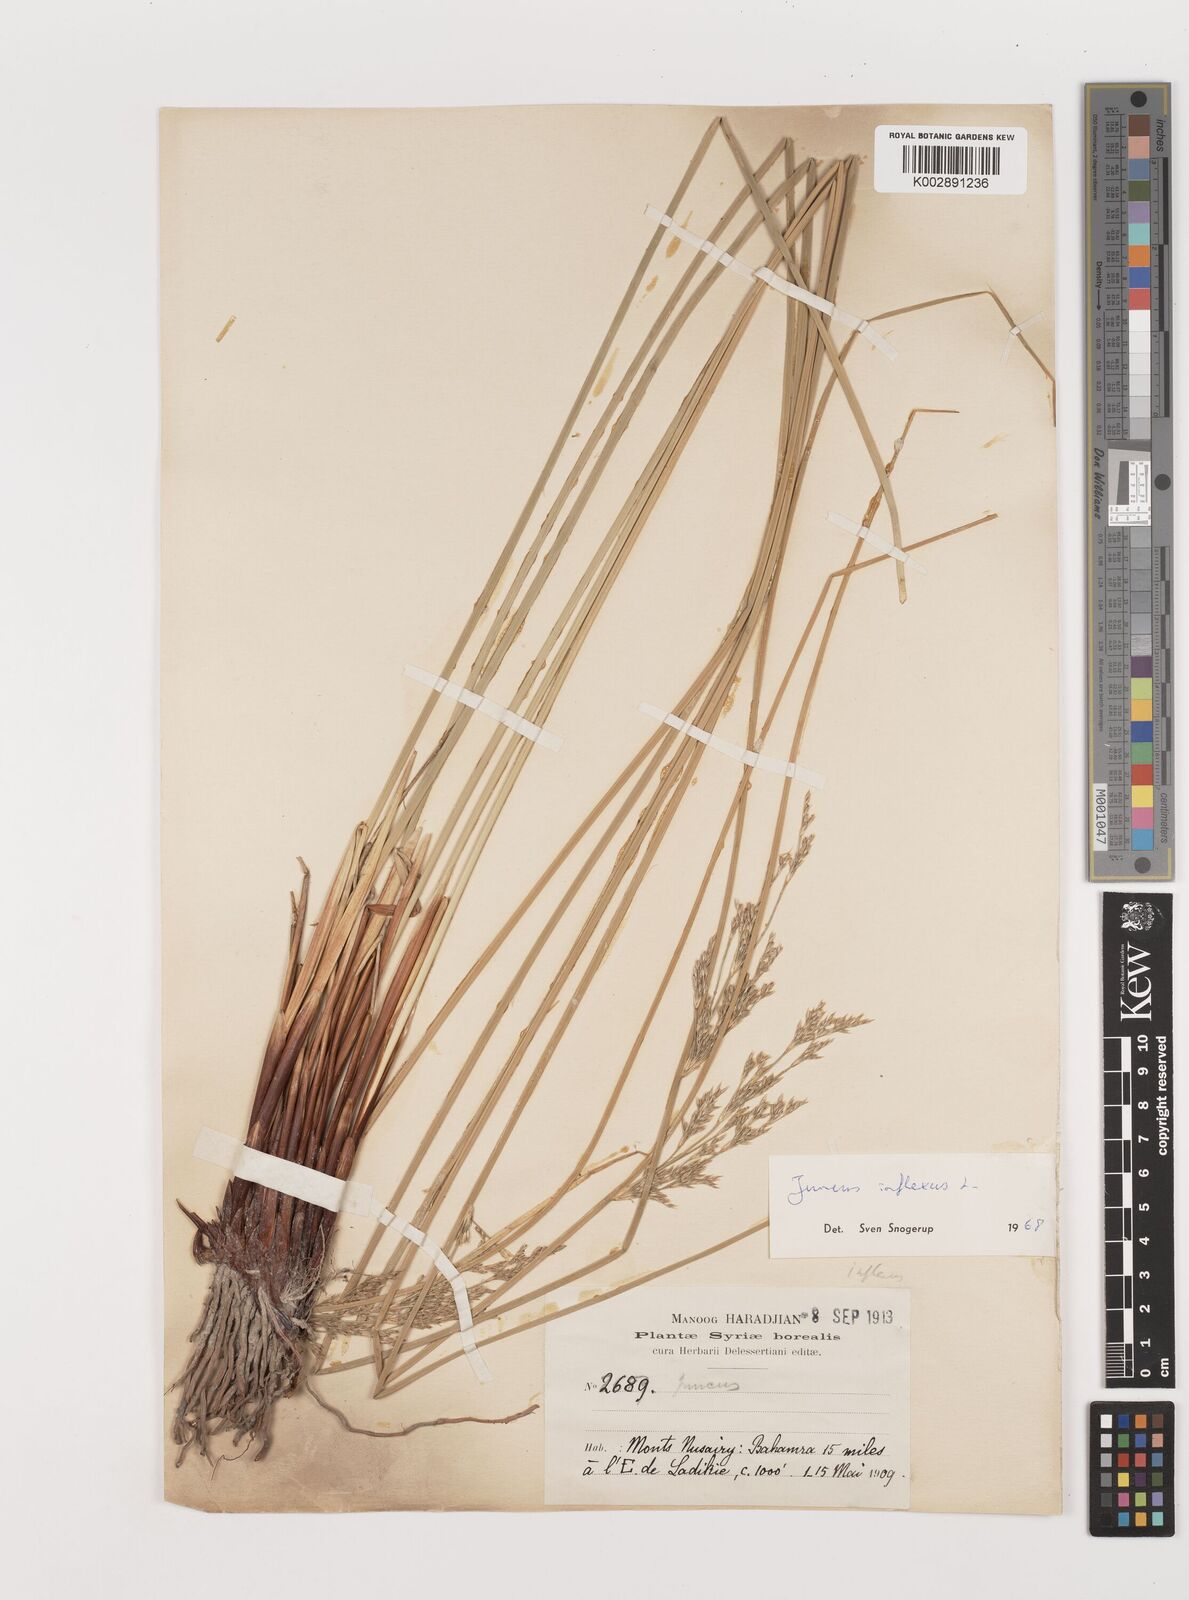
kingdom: Plantae
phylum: Tracheophyta
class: Liliopsida
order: Poales
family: Juncaceae
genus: Juncus
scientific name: Juncus inflexus
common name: Hard rush
